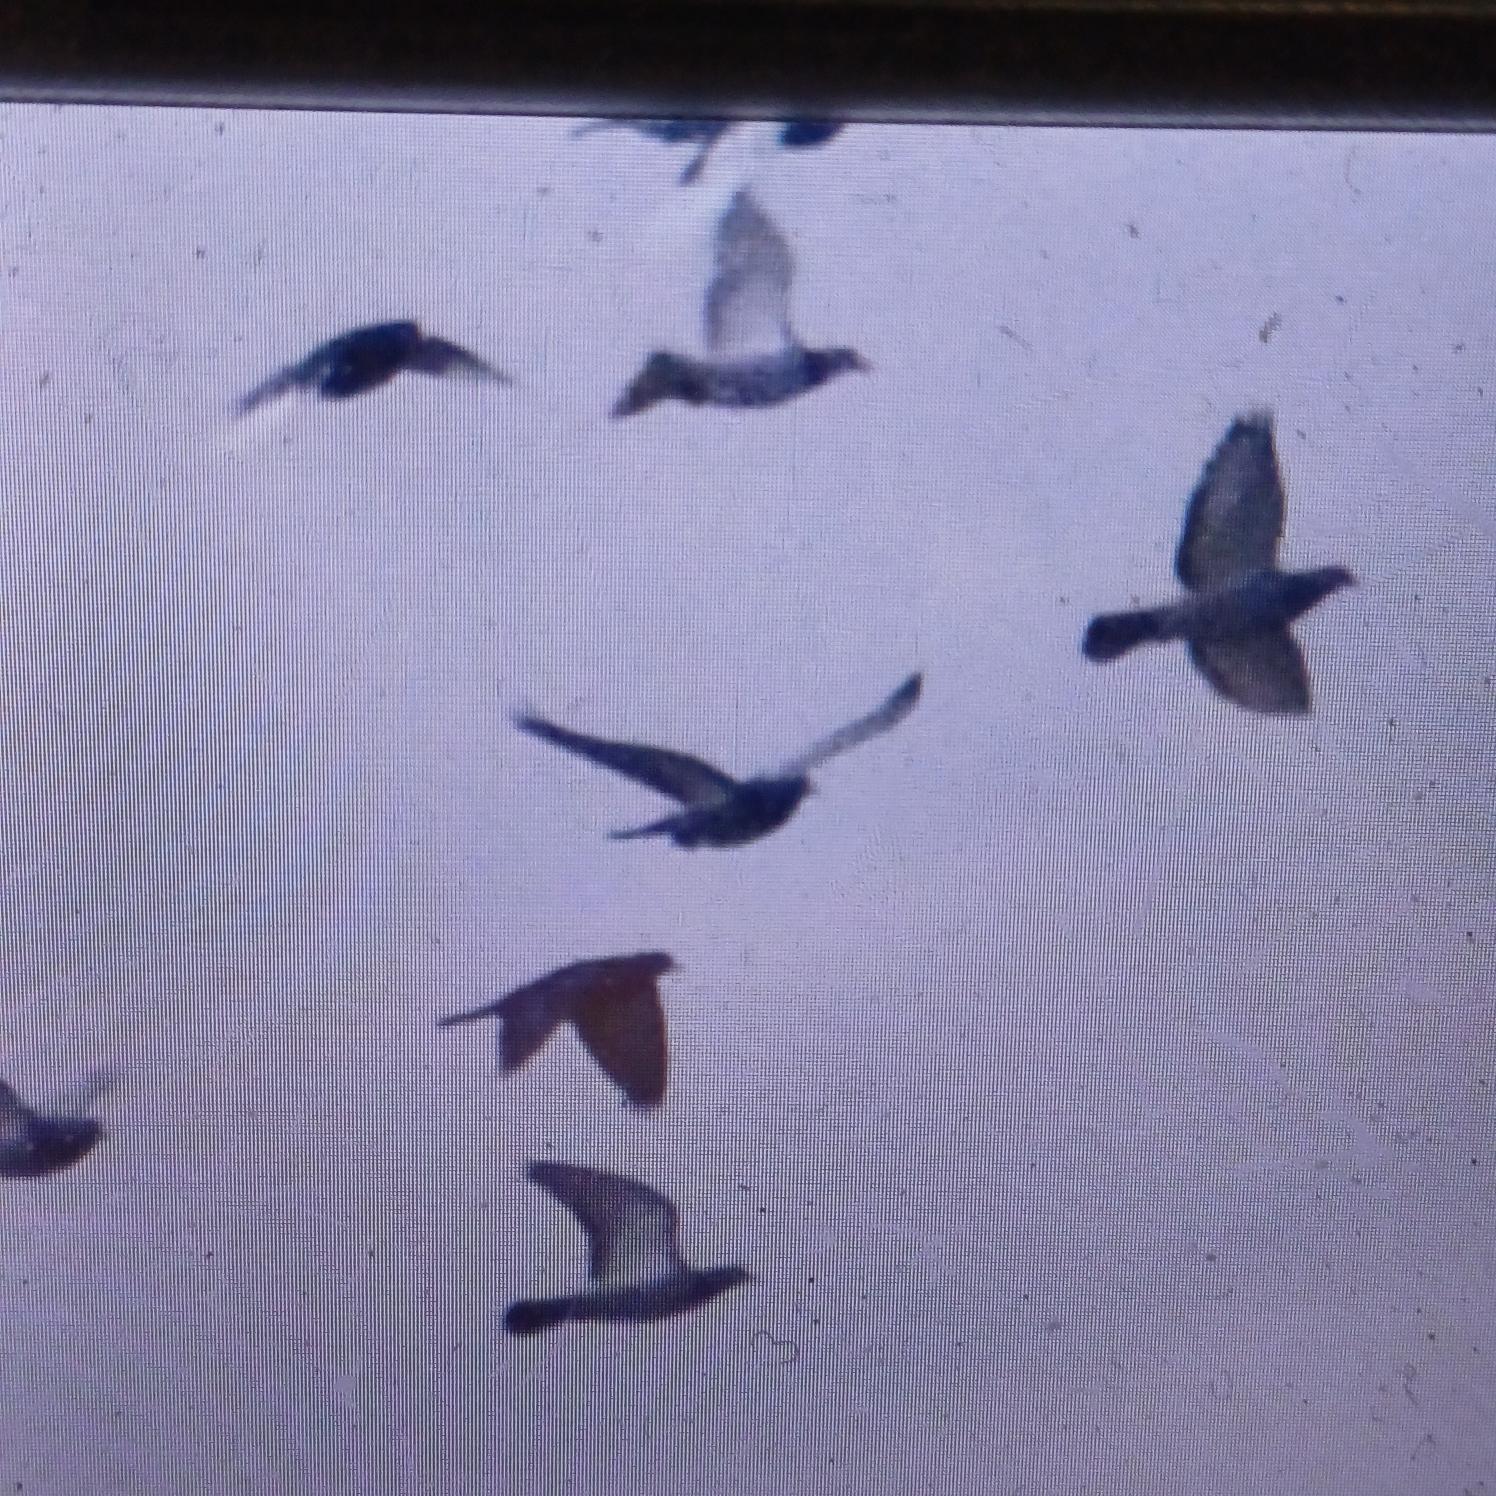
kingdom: Animalia
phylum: Chordata
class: Aves
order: Columbiformes
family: Columbidae
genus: Columba
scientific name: Columba livia
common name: Tamdue
